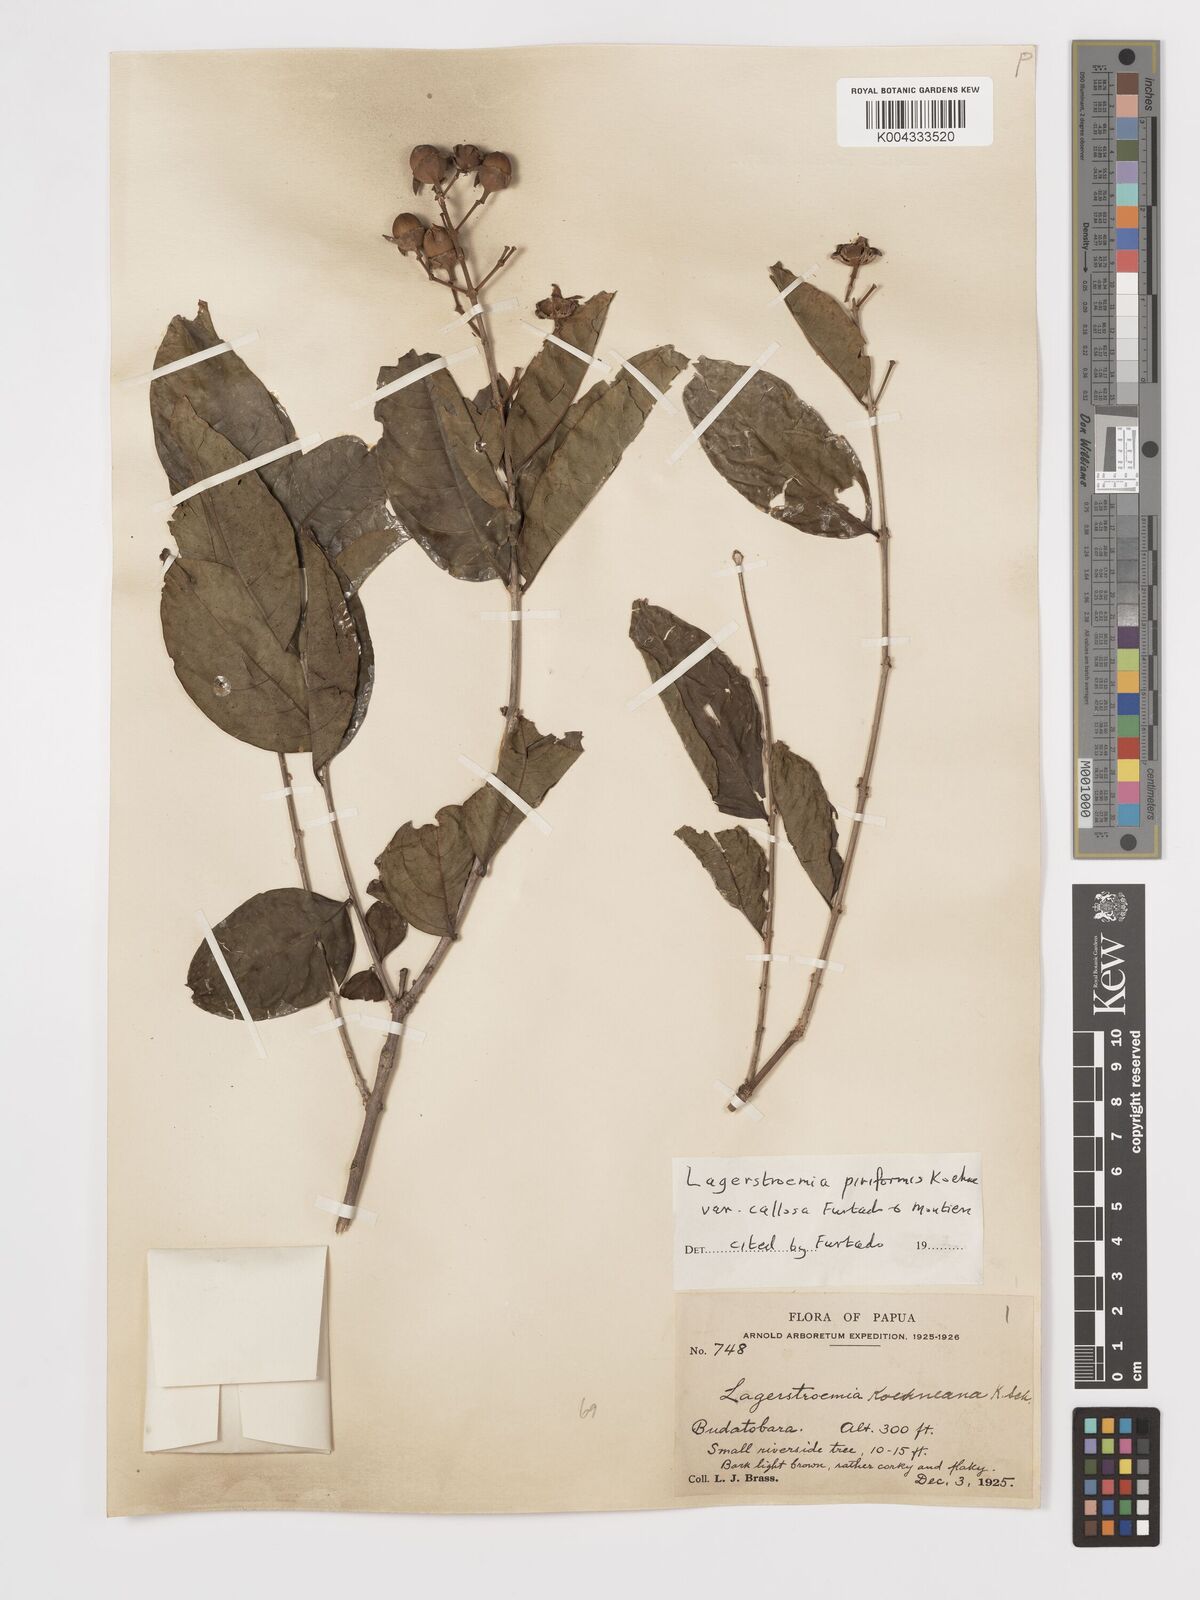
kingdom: Plantae
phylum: Tracheophyta
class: Magnoliopsida
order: Myrtales
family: Lythraceae
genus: Lagerstroemia
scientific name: Lagerstroemia celebica
